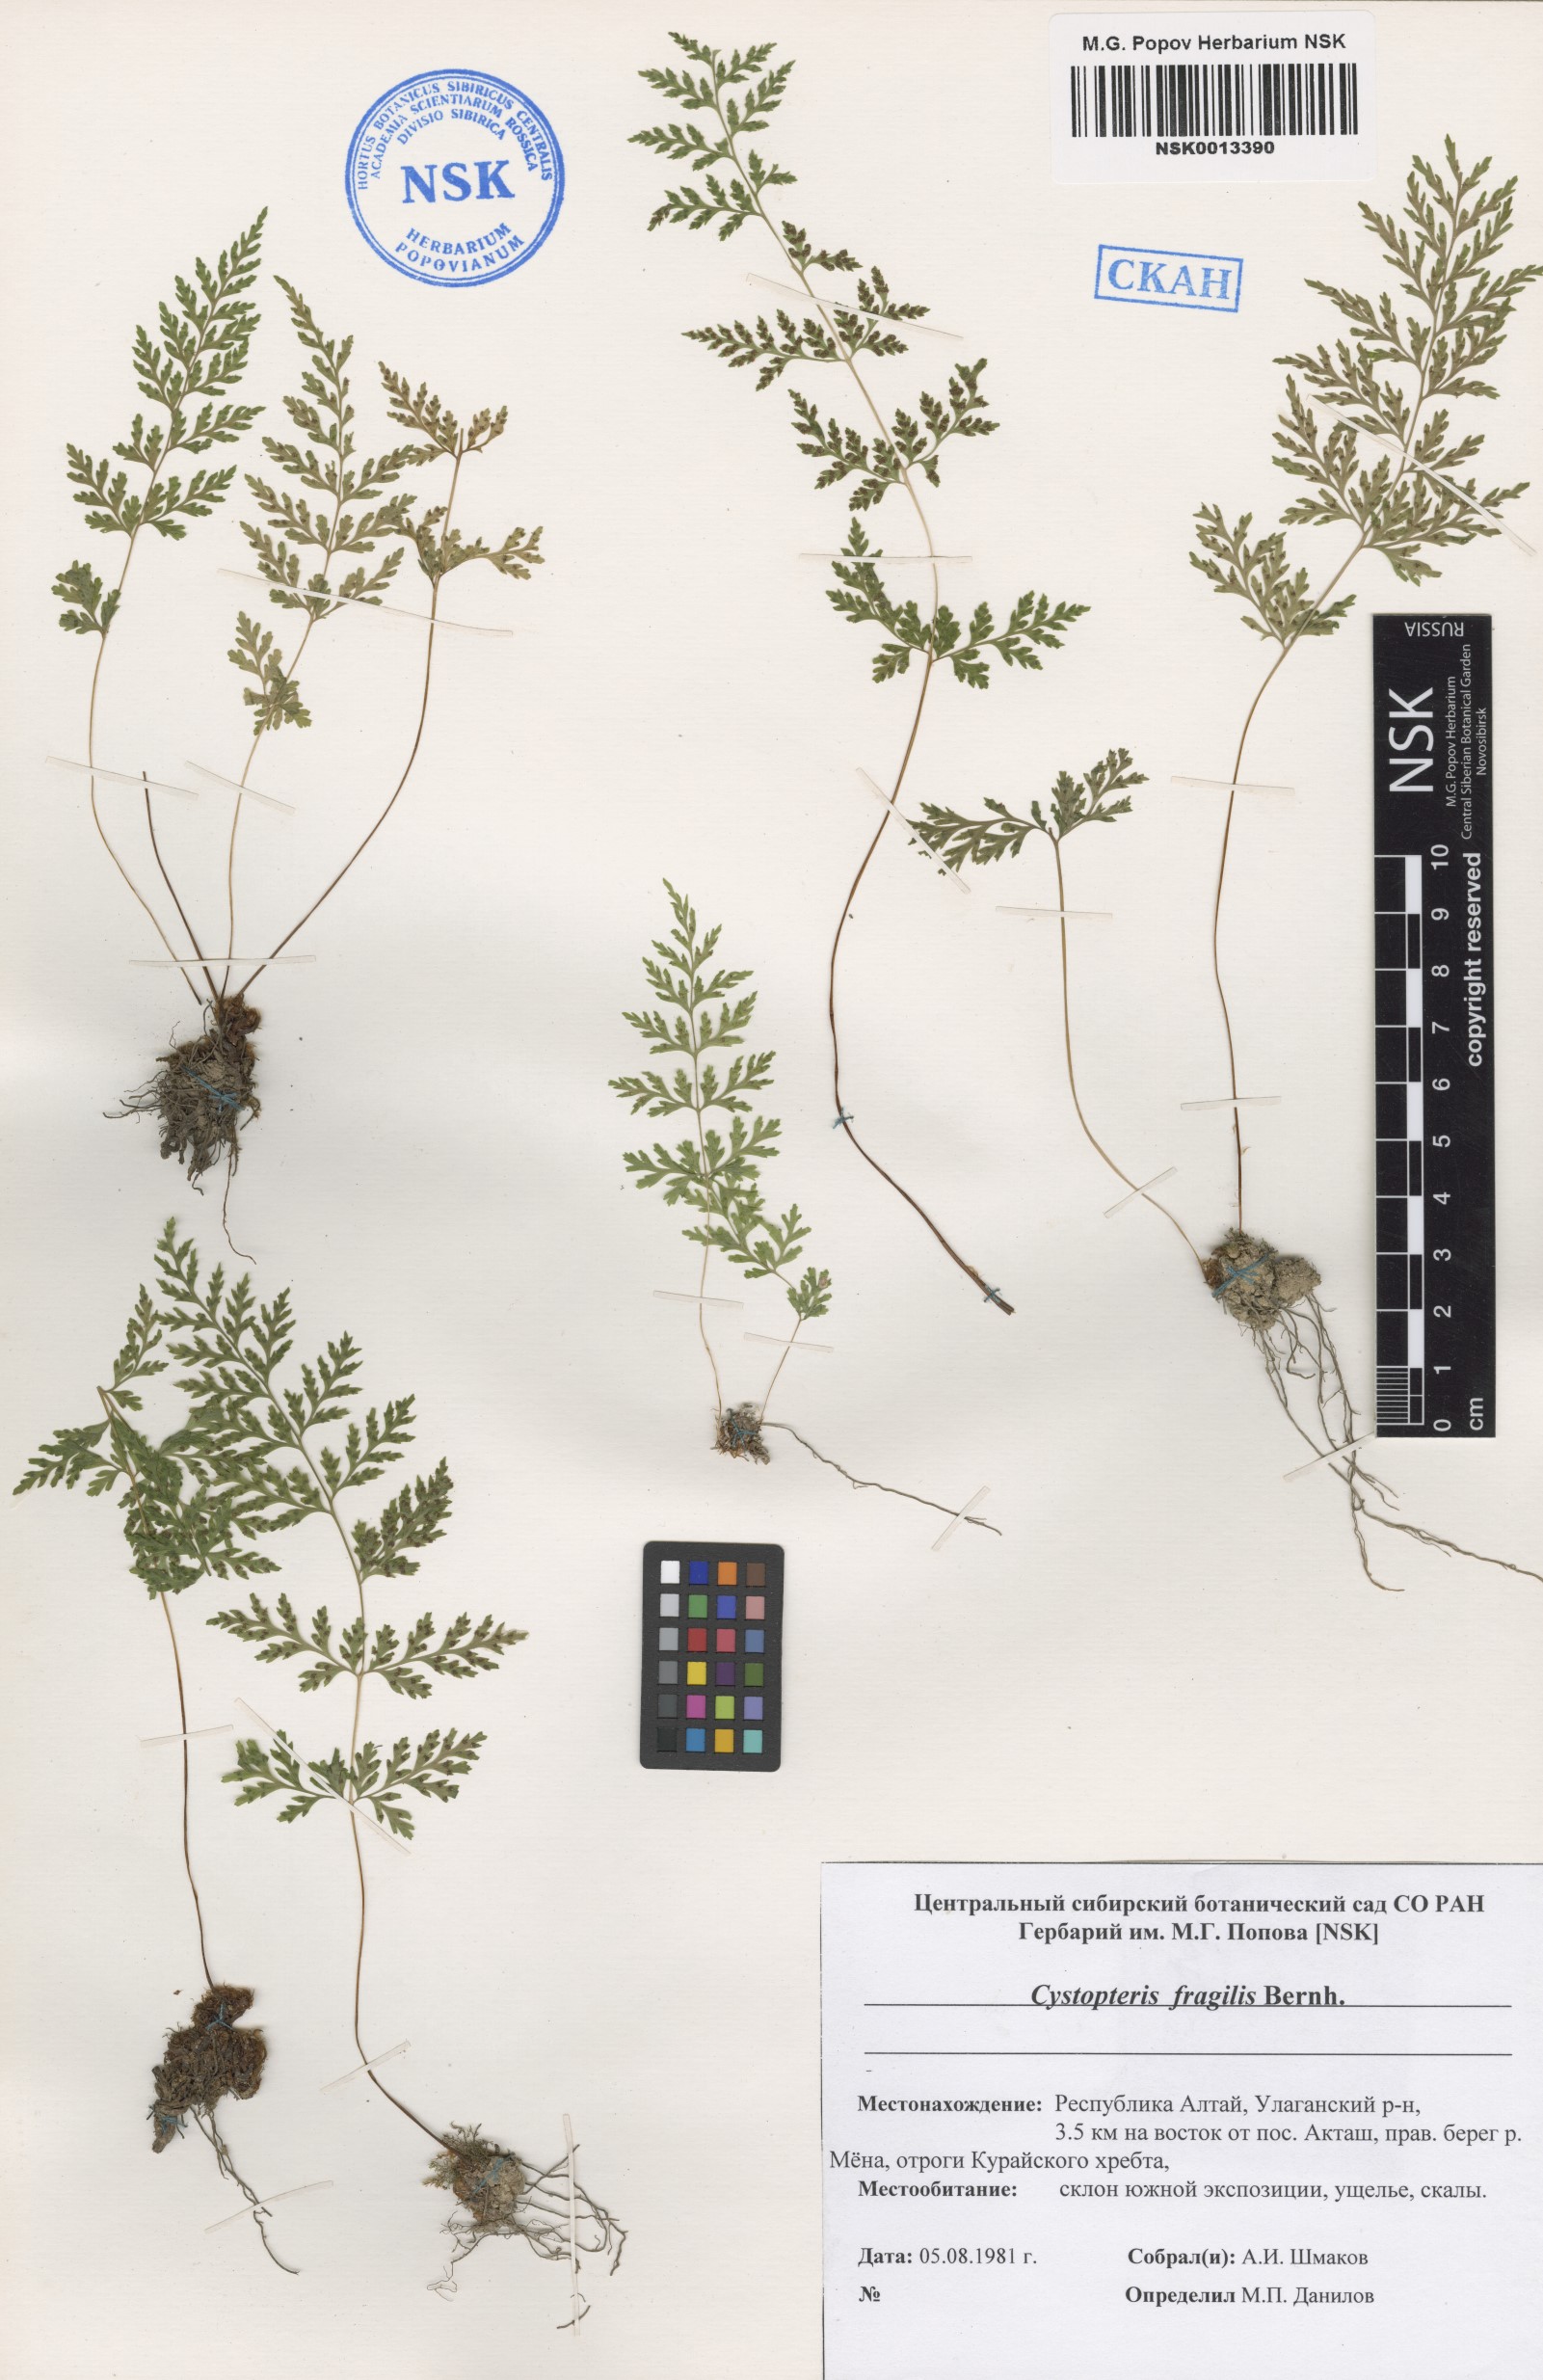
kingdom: Plantae
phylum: Tracheophyta
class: Polypodiopsida
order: Polypodiales
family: Cystopteridaceae
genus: Cystopteris
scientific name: Cystopteris fragilis
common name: Brittle bladder fern
